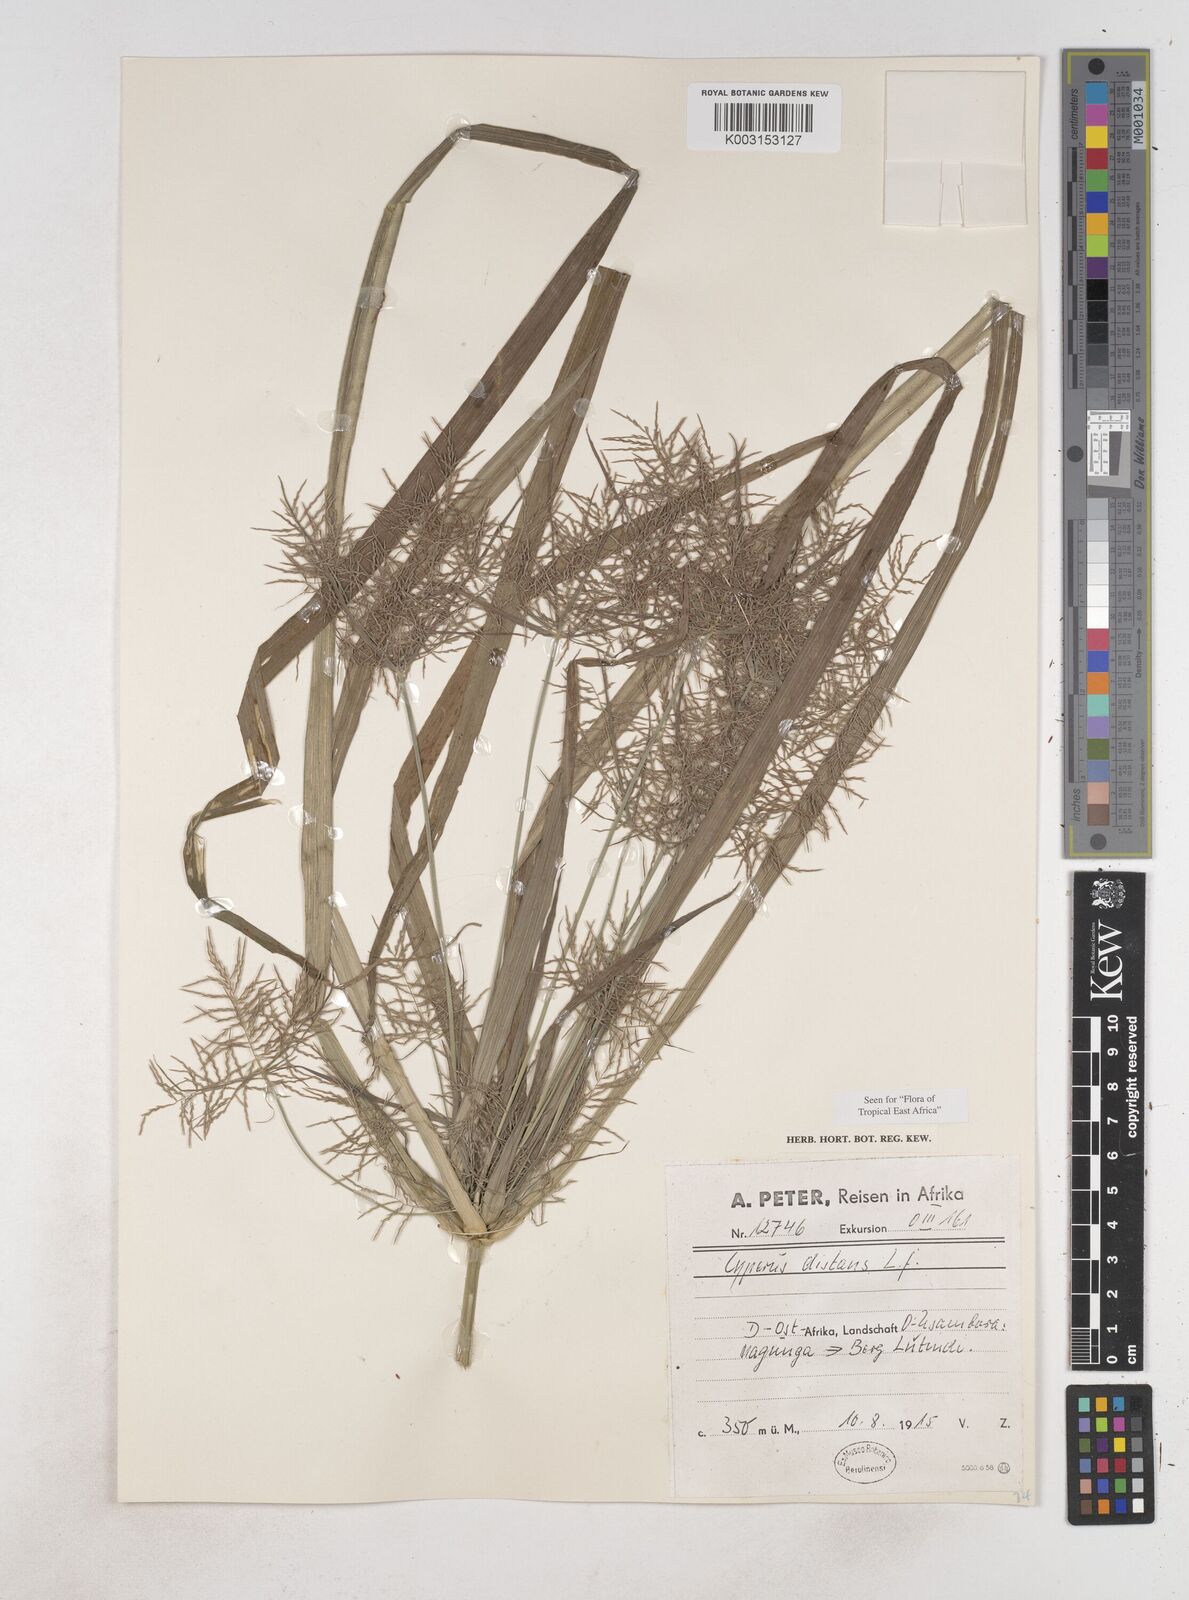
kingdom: Plantae
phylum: Tracheophyta
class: Liliopsida
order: Poales
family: Cyperaceae
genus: Cyperus
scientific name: Cyperus distans
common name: Slender cyperus
